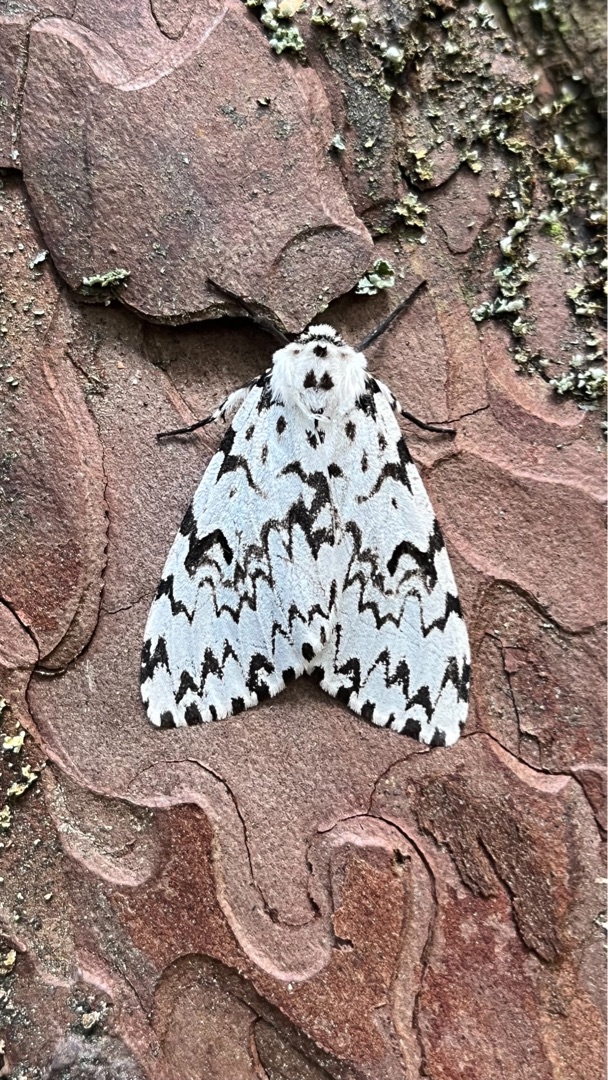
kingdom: Animalia
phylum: Arthropoda
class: Insecta
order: Lepidoptera
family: Erebidae
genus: Lymantria
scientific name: Lymantria monacha
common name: Nonne
